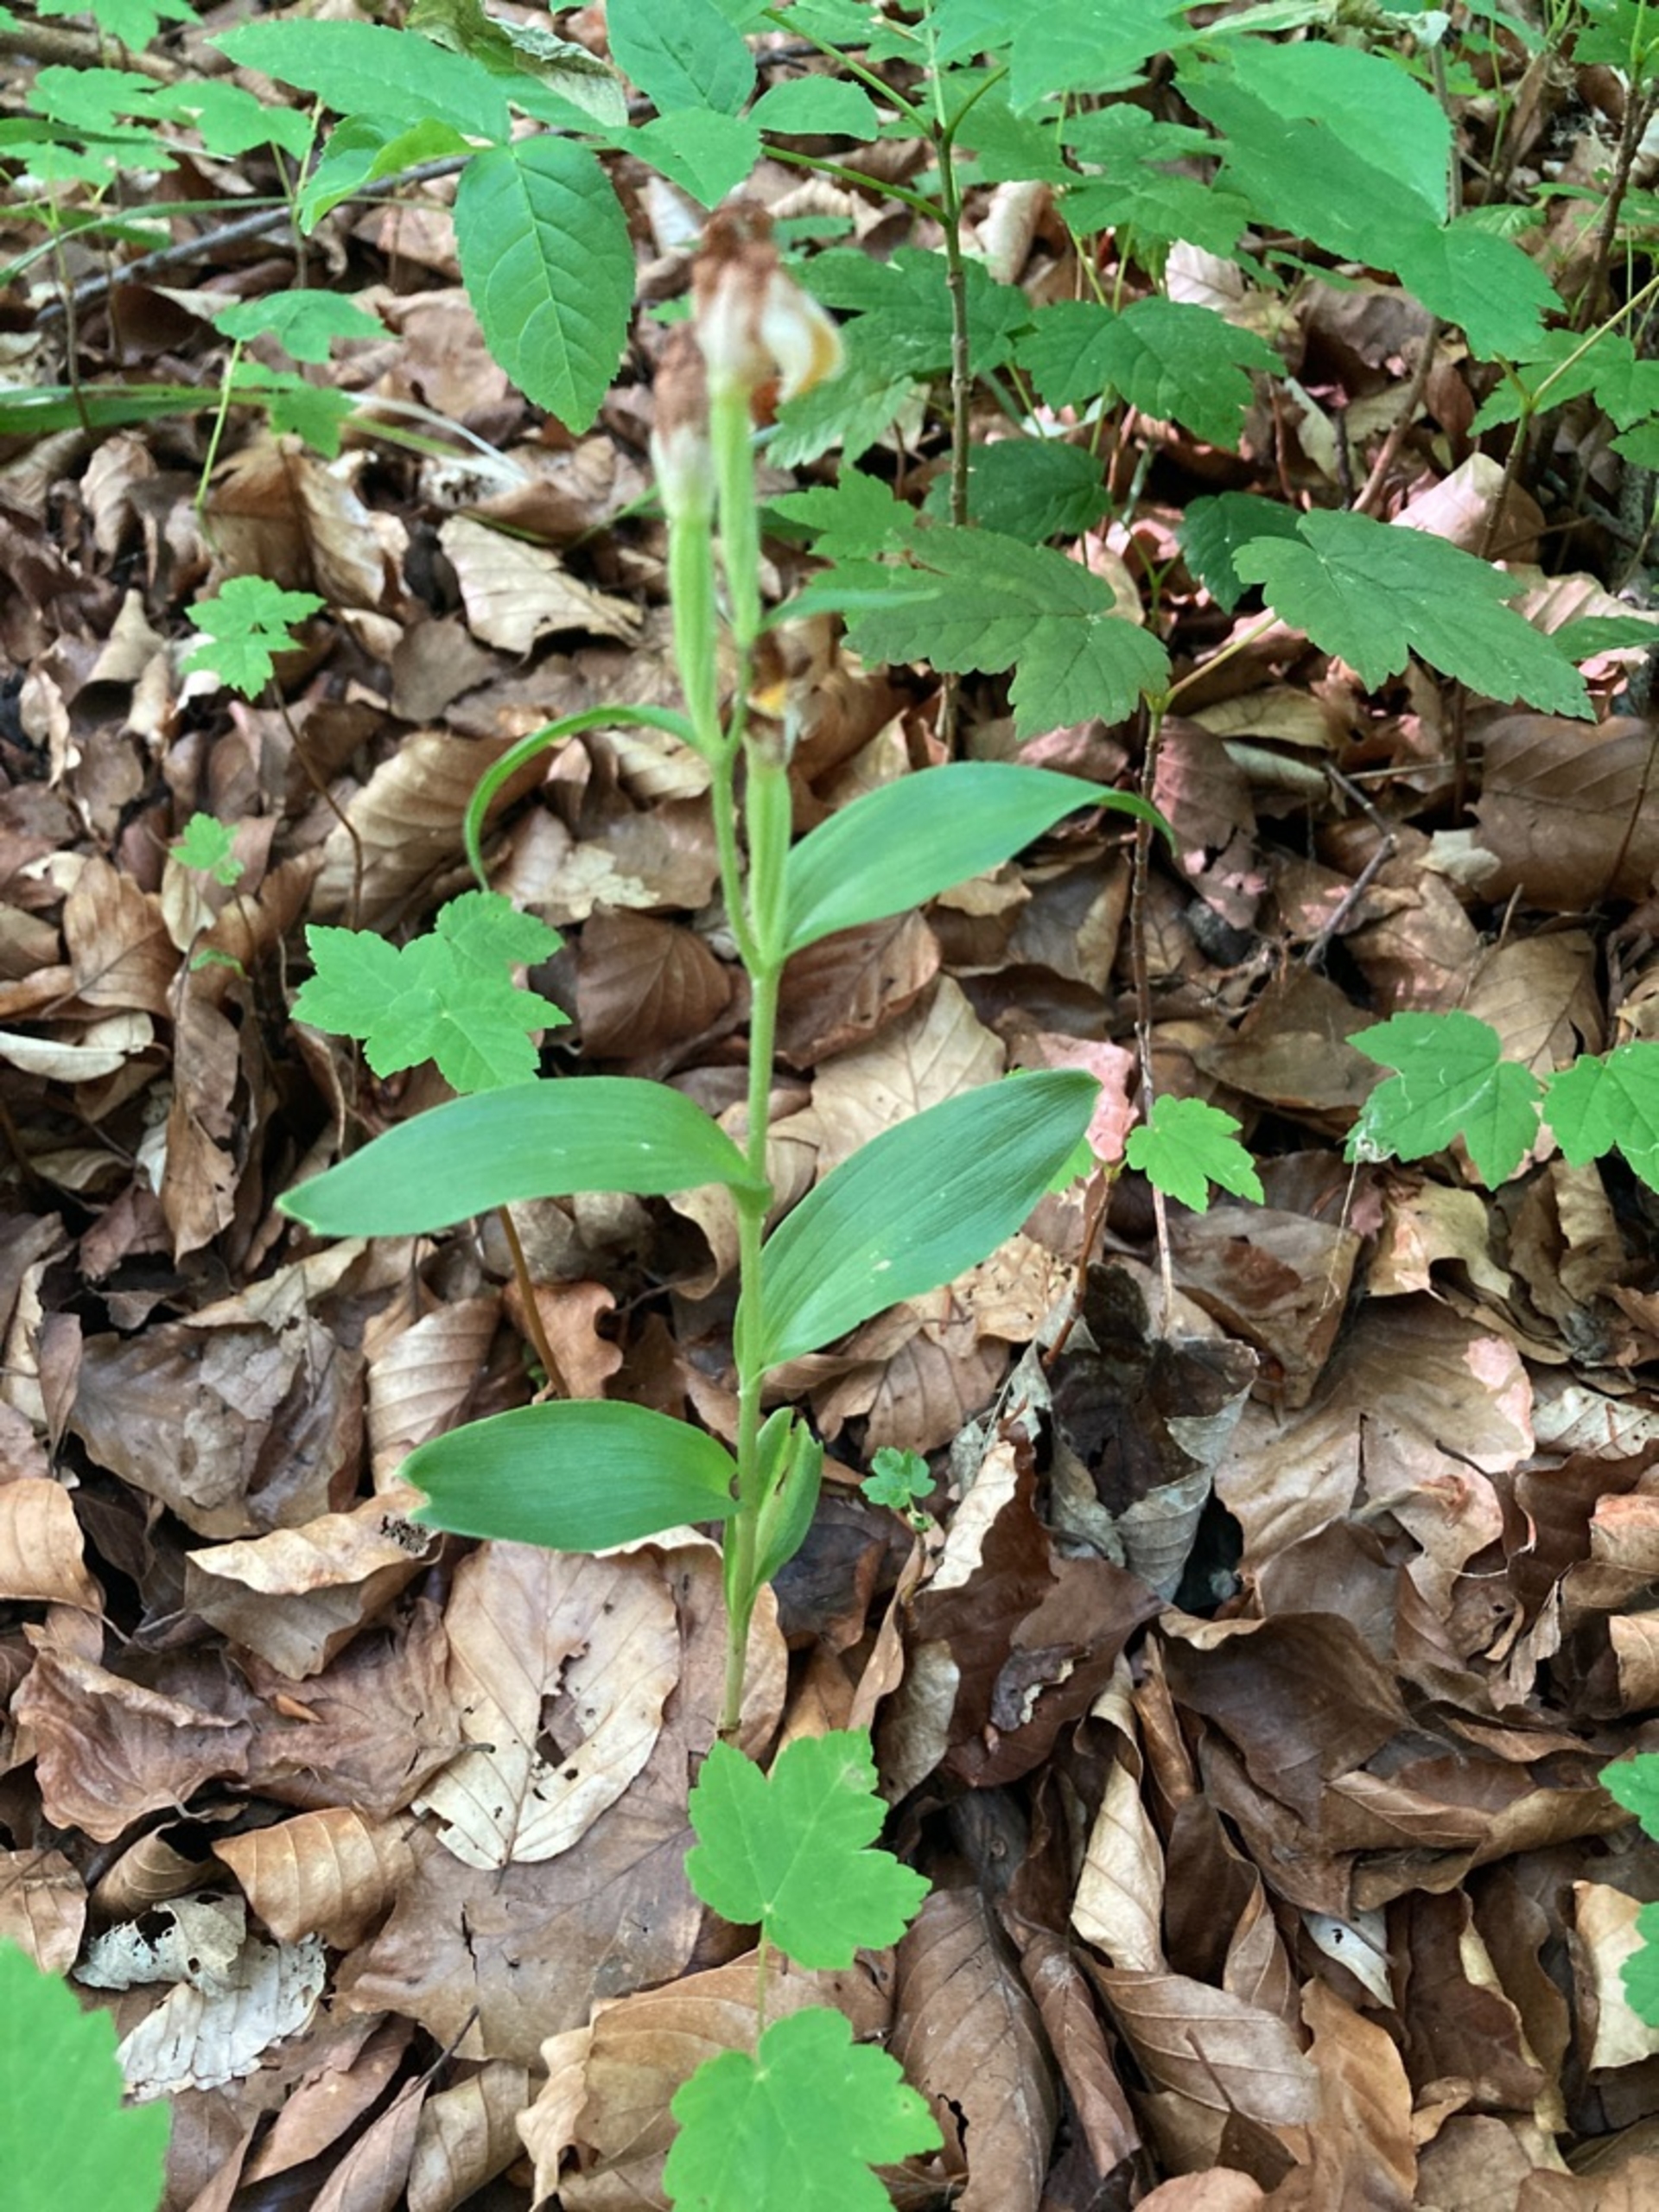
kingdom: Plantae
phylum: Tracheophyta
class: Liliopsida
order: Asparagales
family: Orchidaceae
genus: Cephalanthera
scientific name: Cephalanthera damasonium
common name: Hvidgul skovlilje
